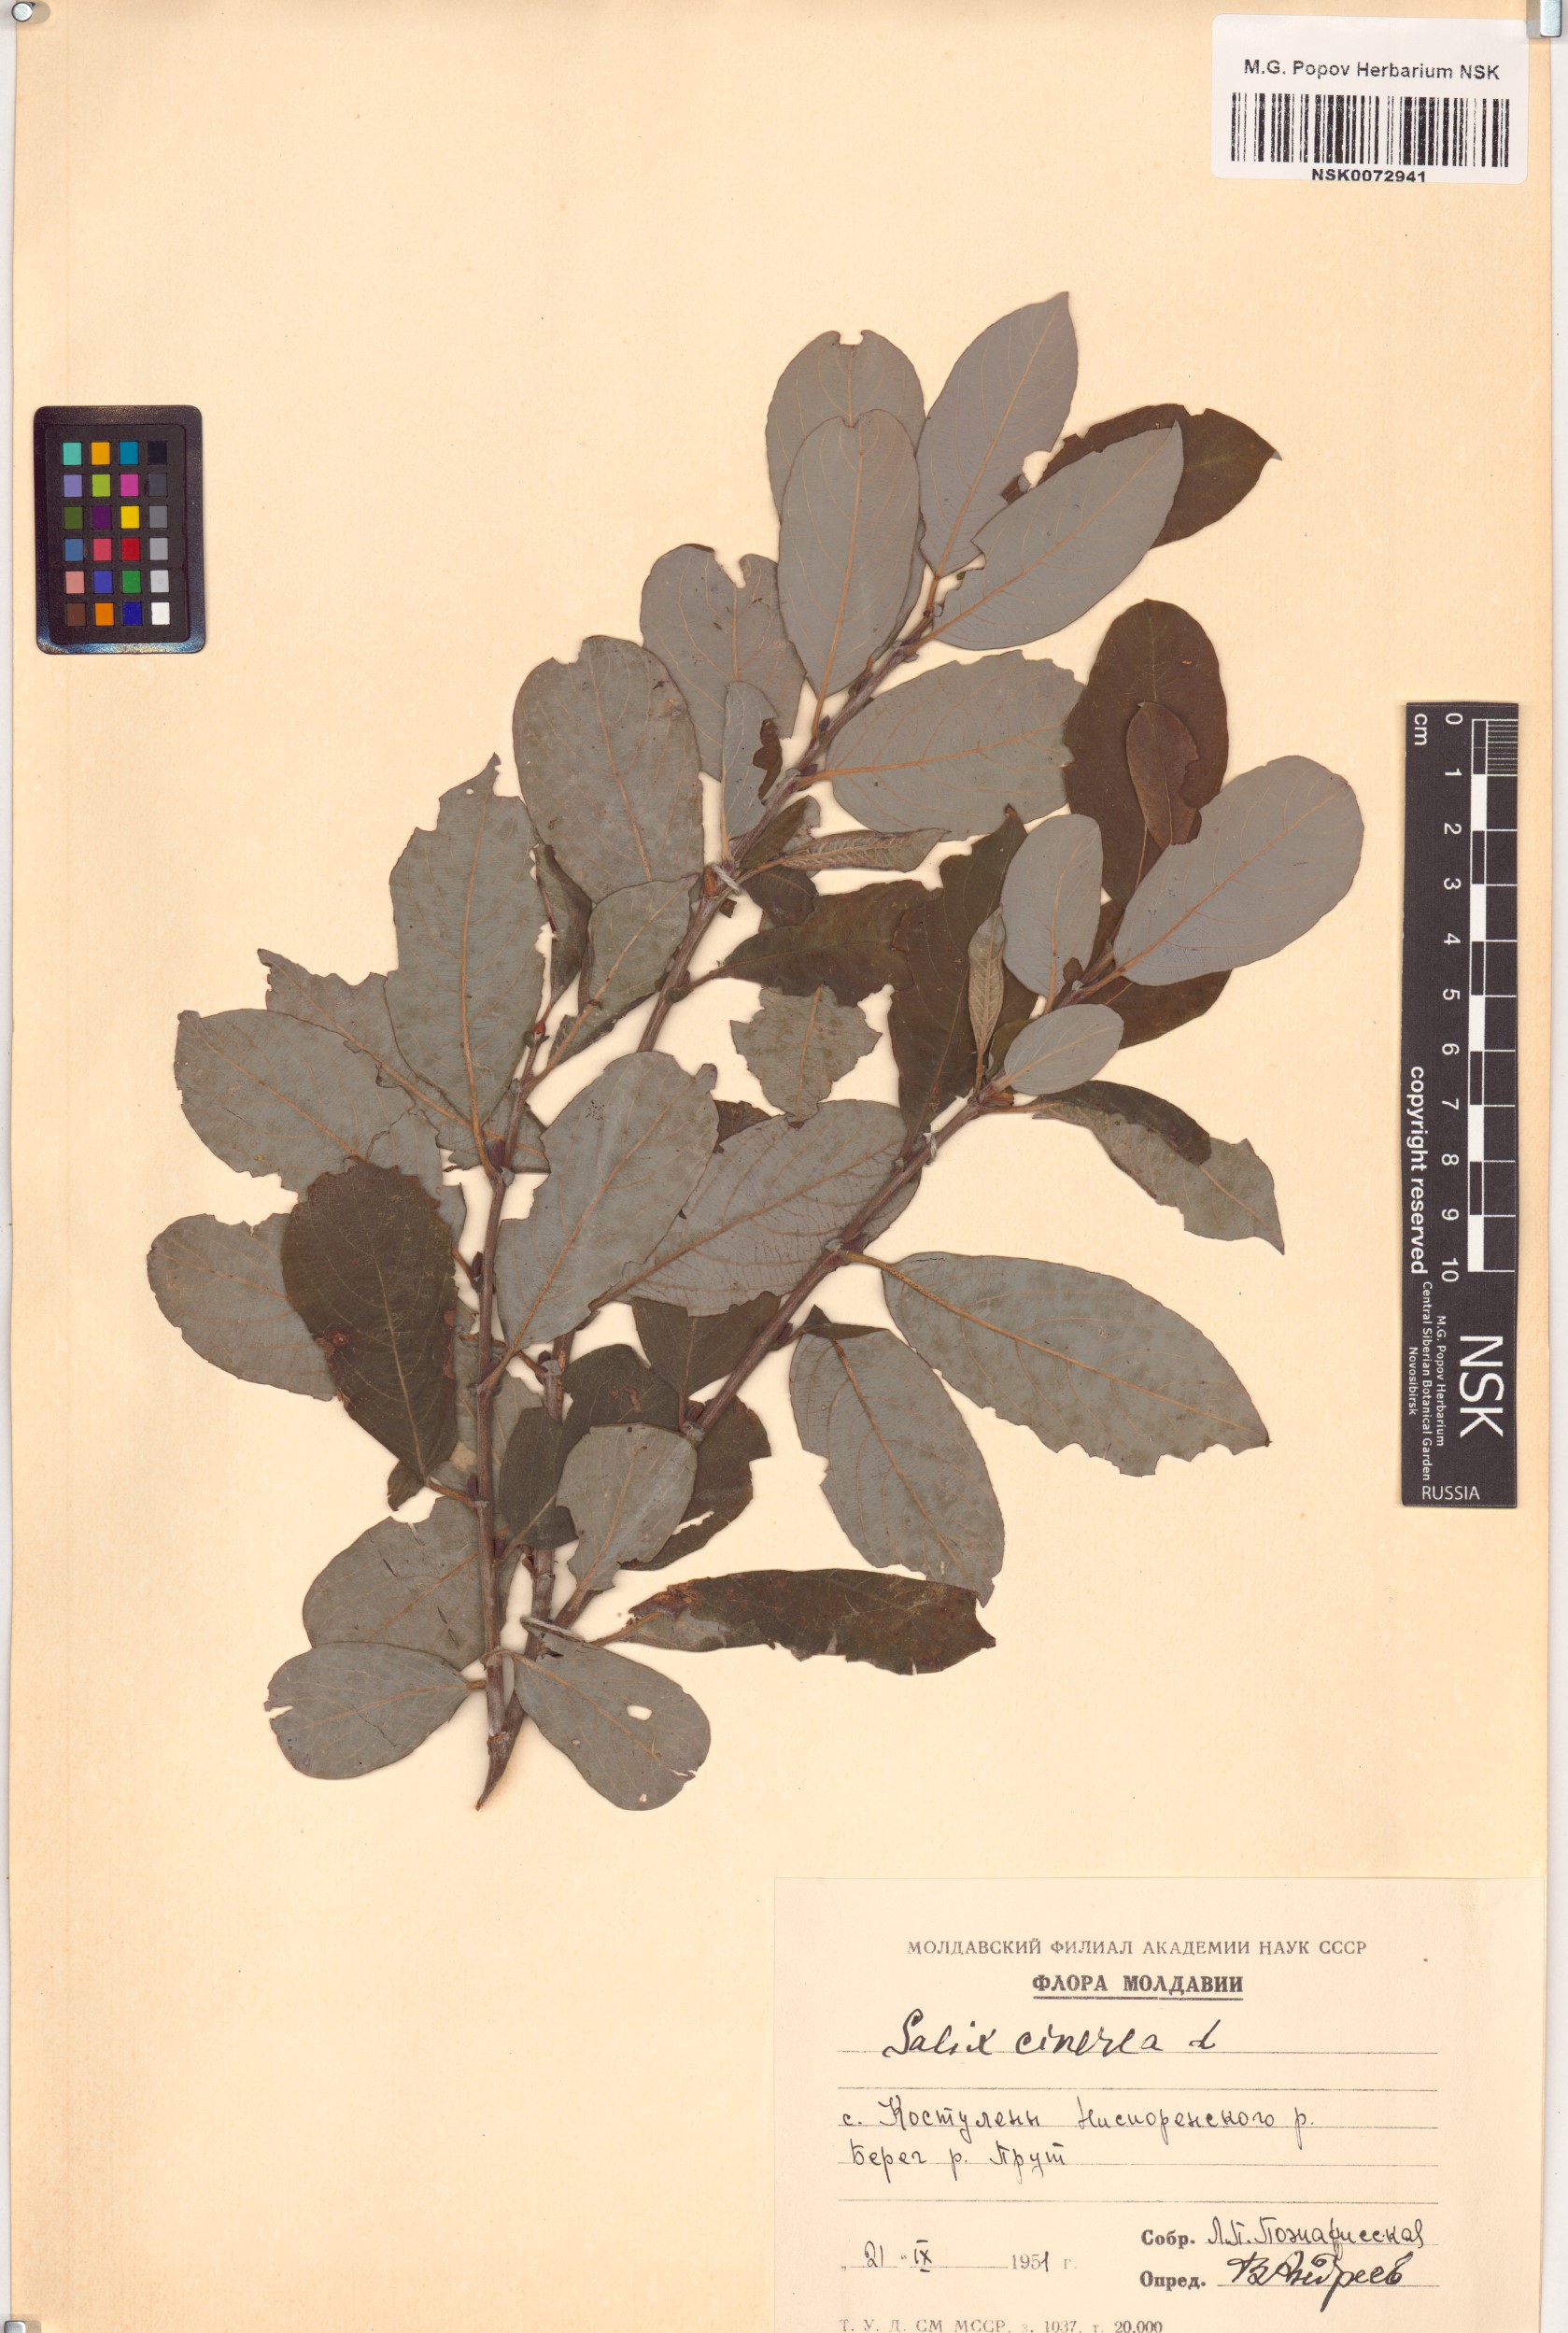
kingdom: Plantae
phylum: Tracheophyta
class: Magnoliopsida
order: Malpighiales
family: Salicaceae
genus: Salix
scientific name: Salix cinerea
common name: Common sallow
